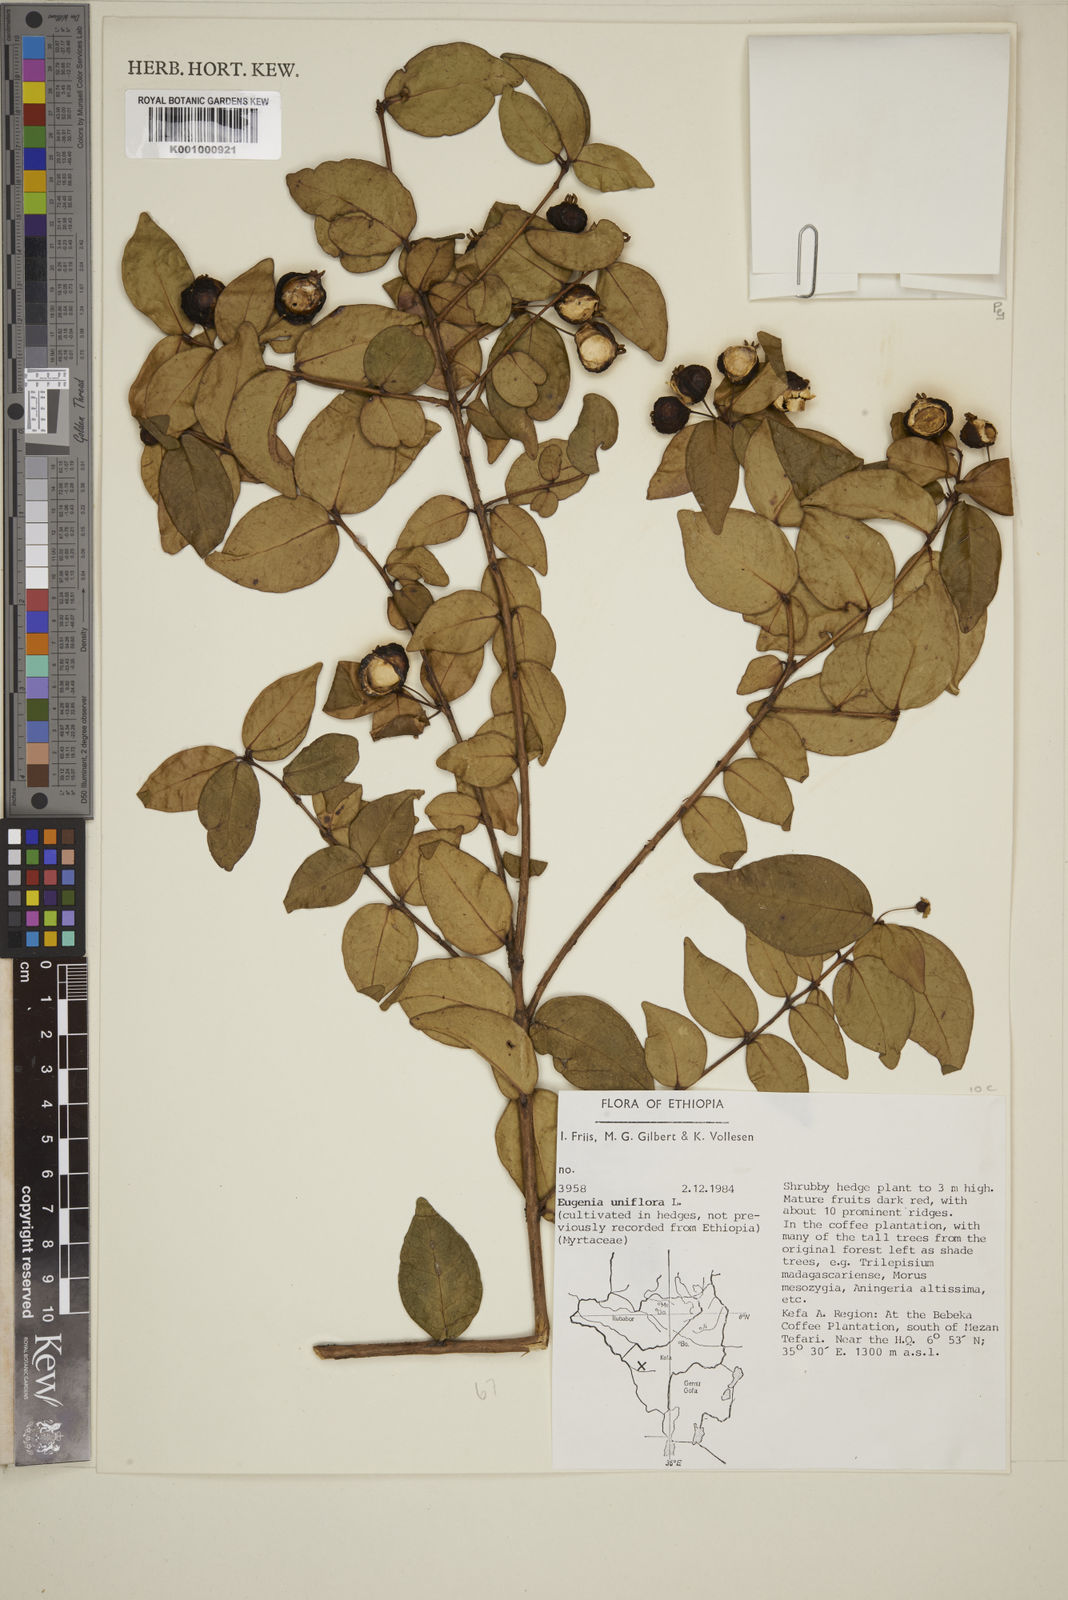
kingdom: Plantae
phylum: Tracheophyta
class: Magnoliopsida
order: Myrtales
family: Myrtaceae
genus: Eugenia
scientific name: Eugenia uniflora
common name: Surinam cherry
